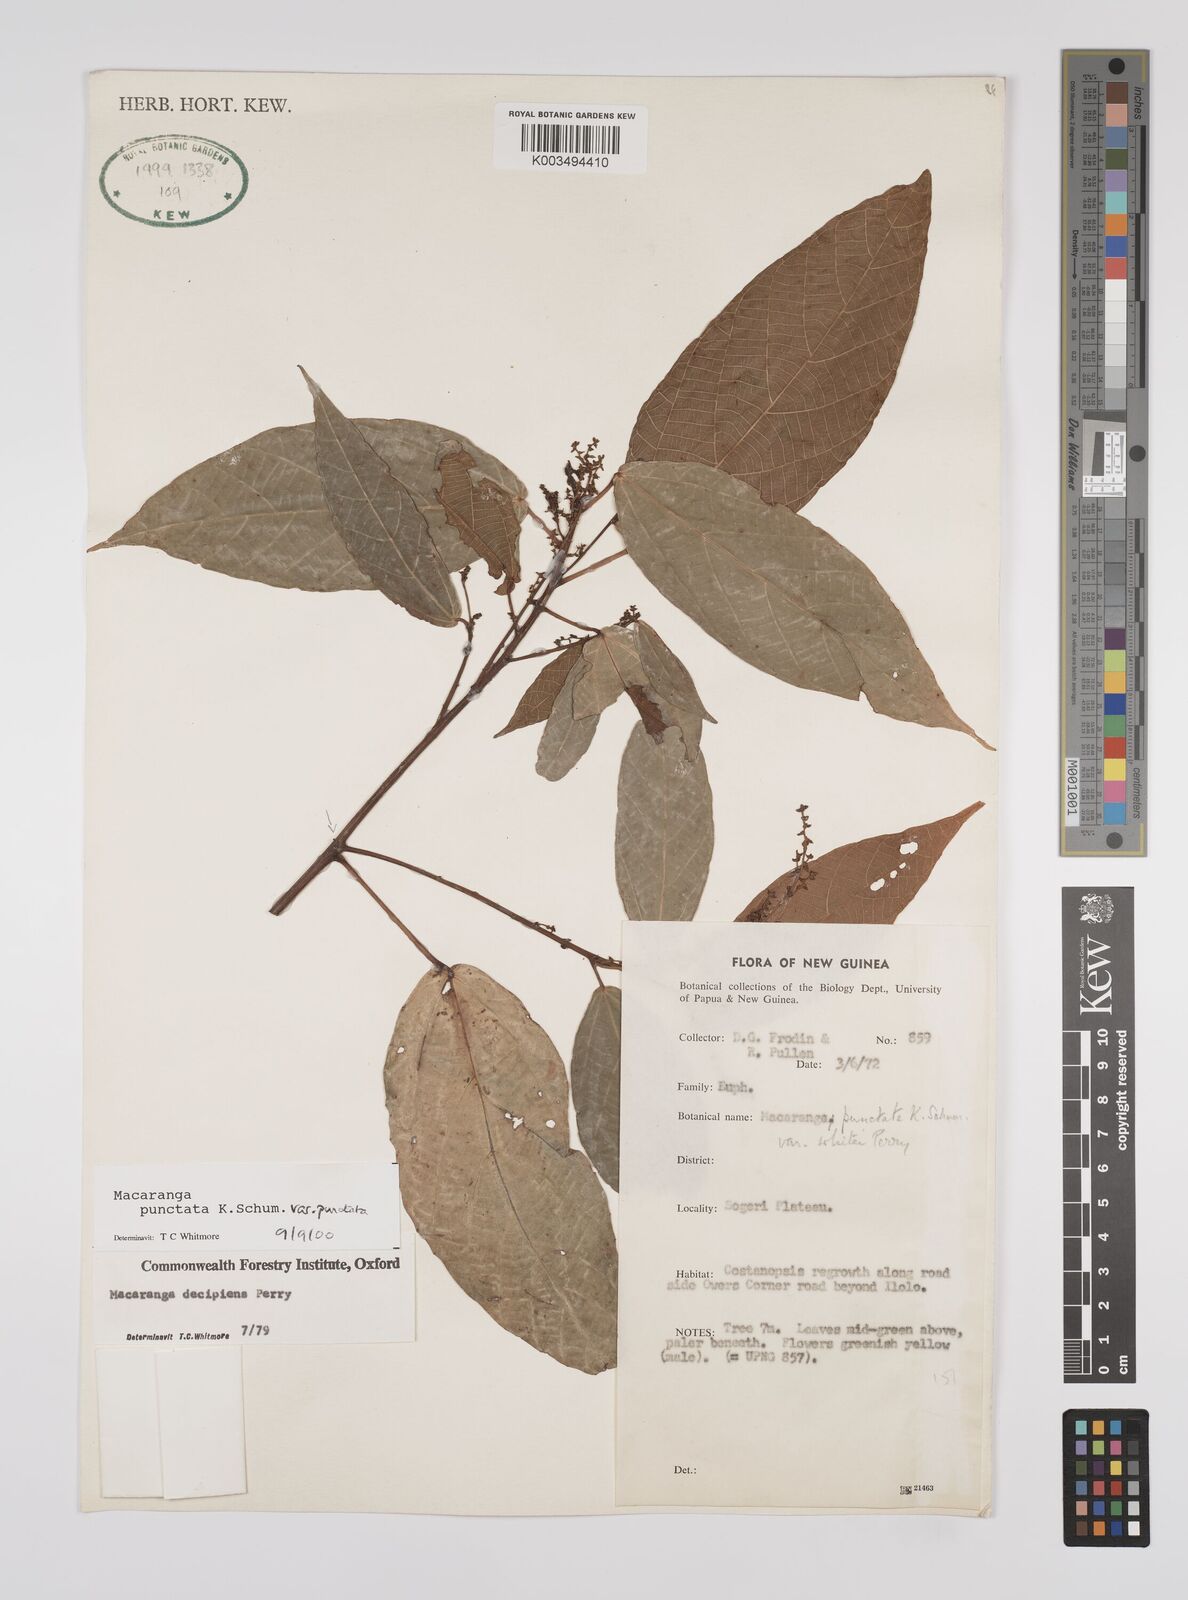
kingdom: Plantae
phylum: Tracheophyta
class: Magnoliopsida
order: Malpighiales
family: Euphorbiaceae
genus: Macaranga
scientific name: Macaranga punctata
